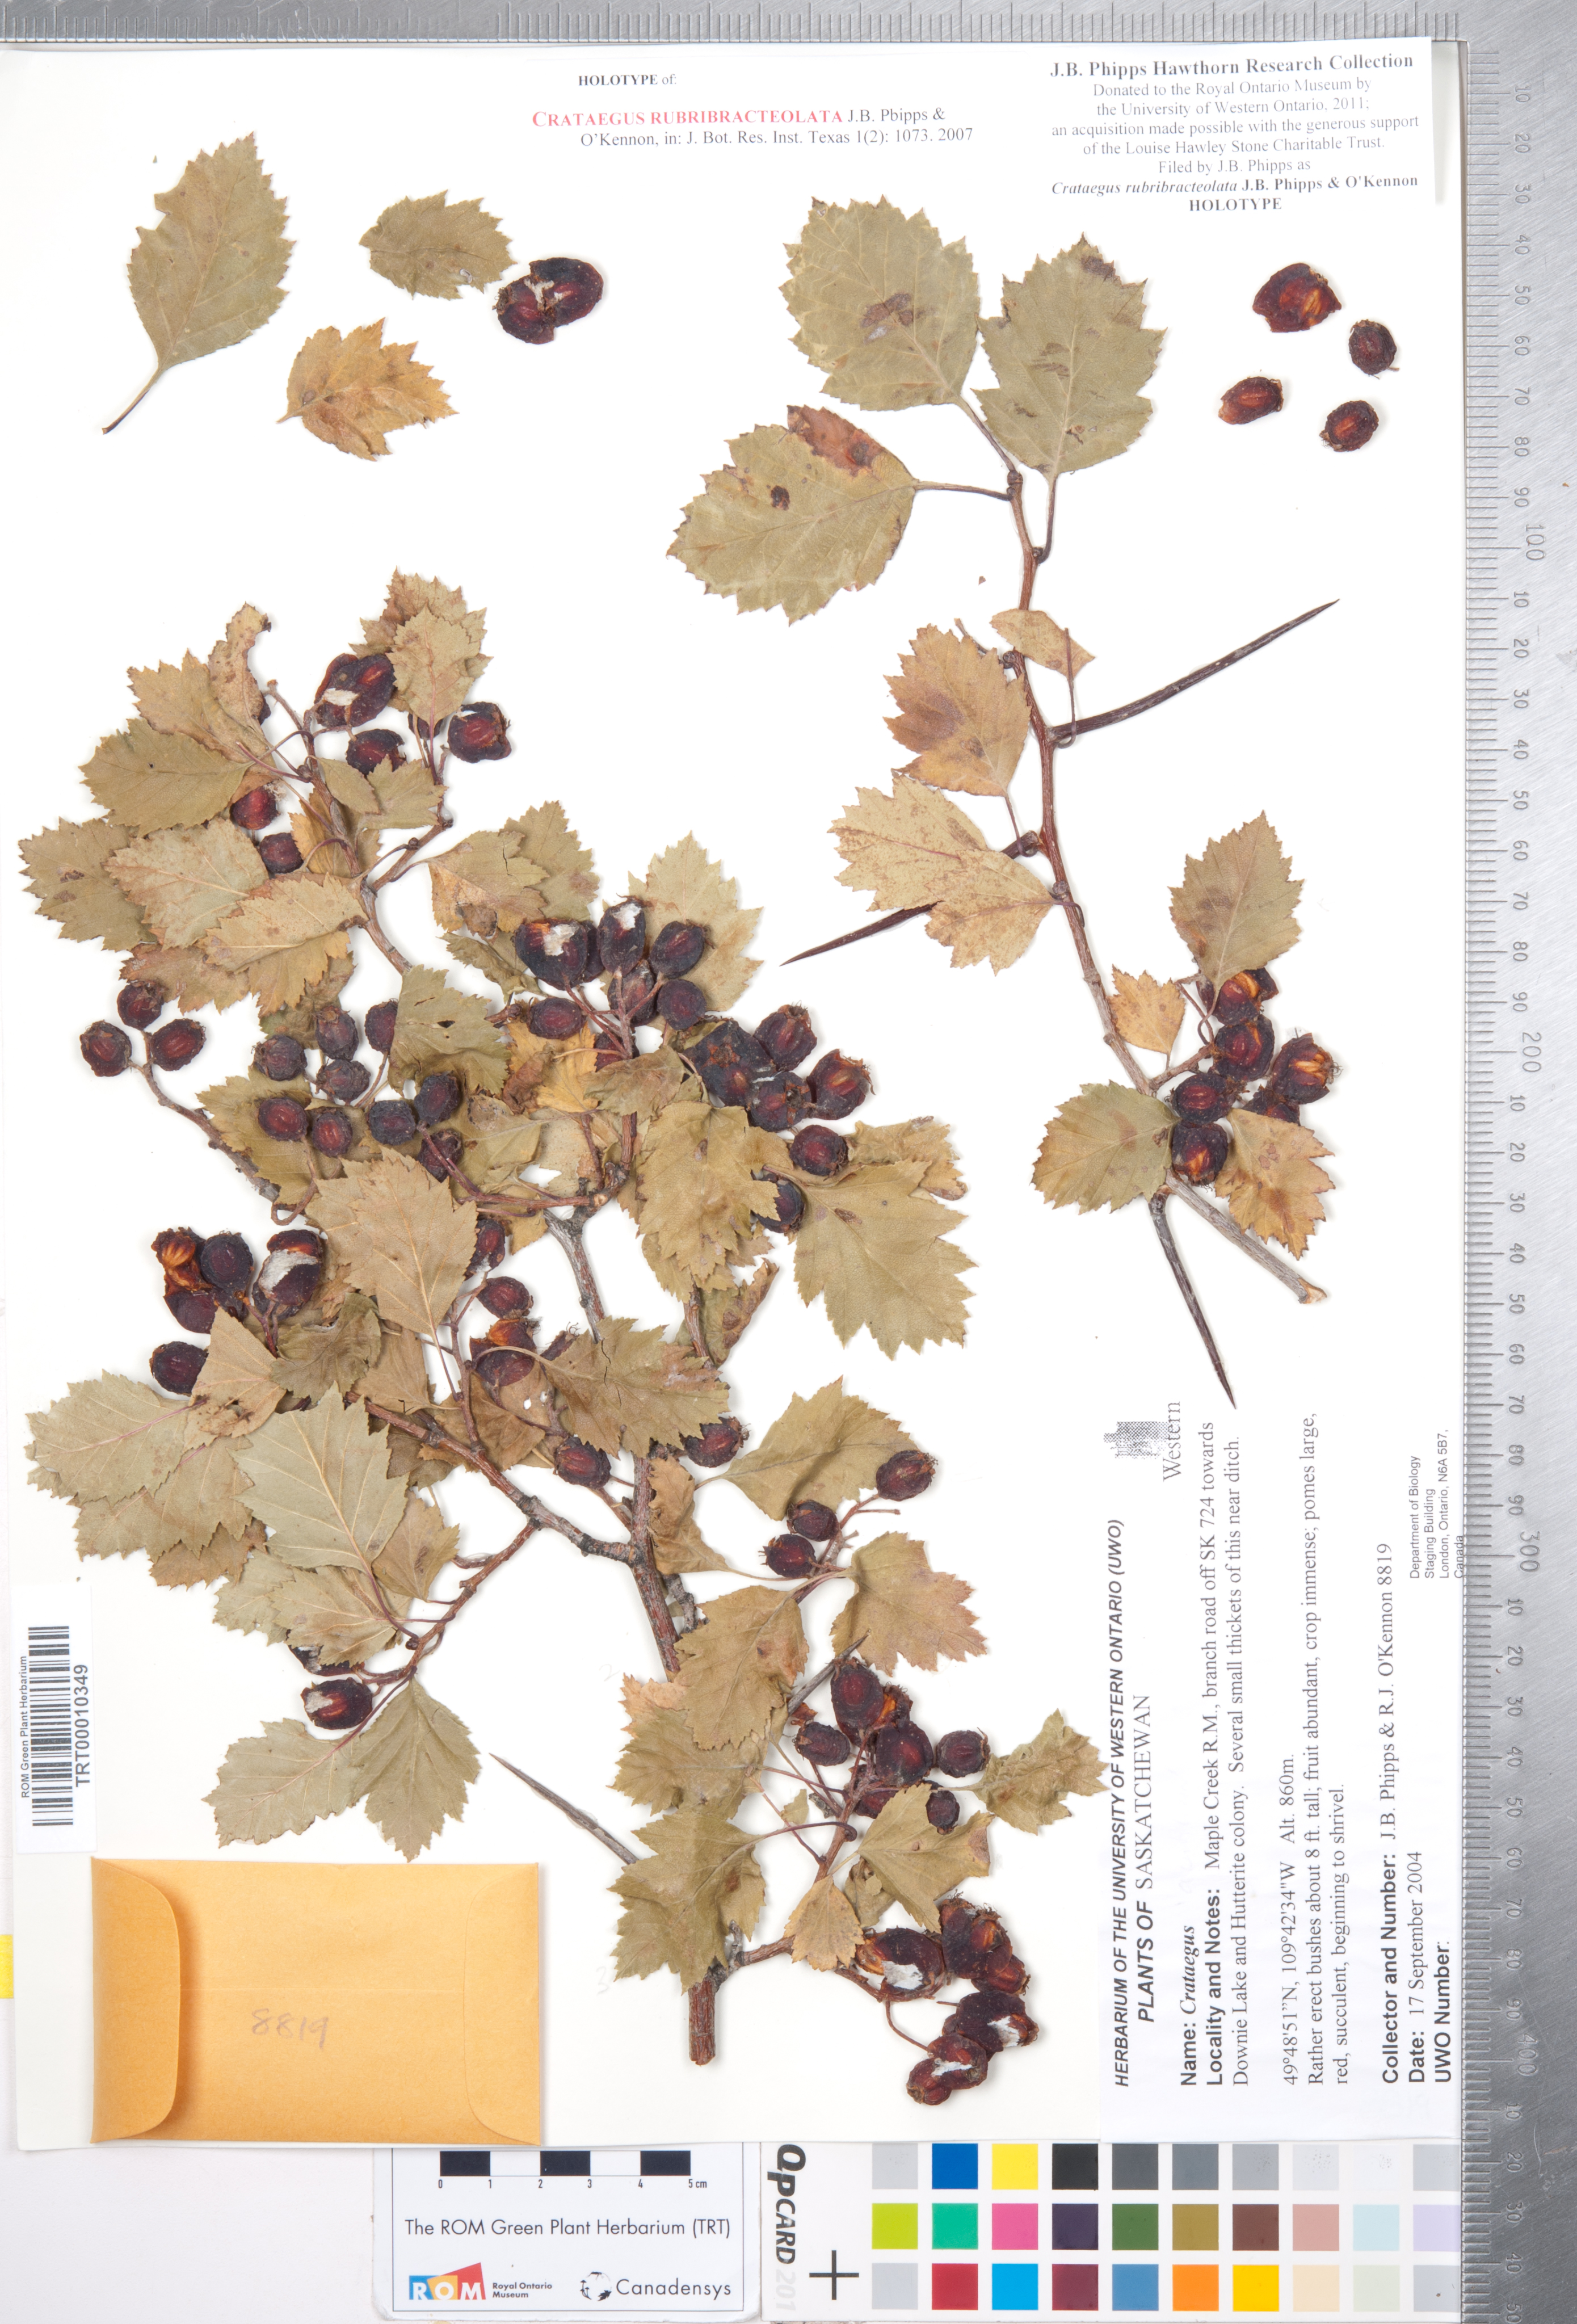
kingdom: Plantae
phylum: Tracheophyta
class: Magnoliopsida
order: Rosales
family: Rosaceae
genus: Crataegus
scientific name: Crataegus rubribracteolata
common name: Red bracteole hawthorn
